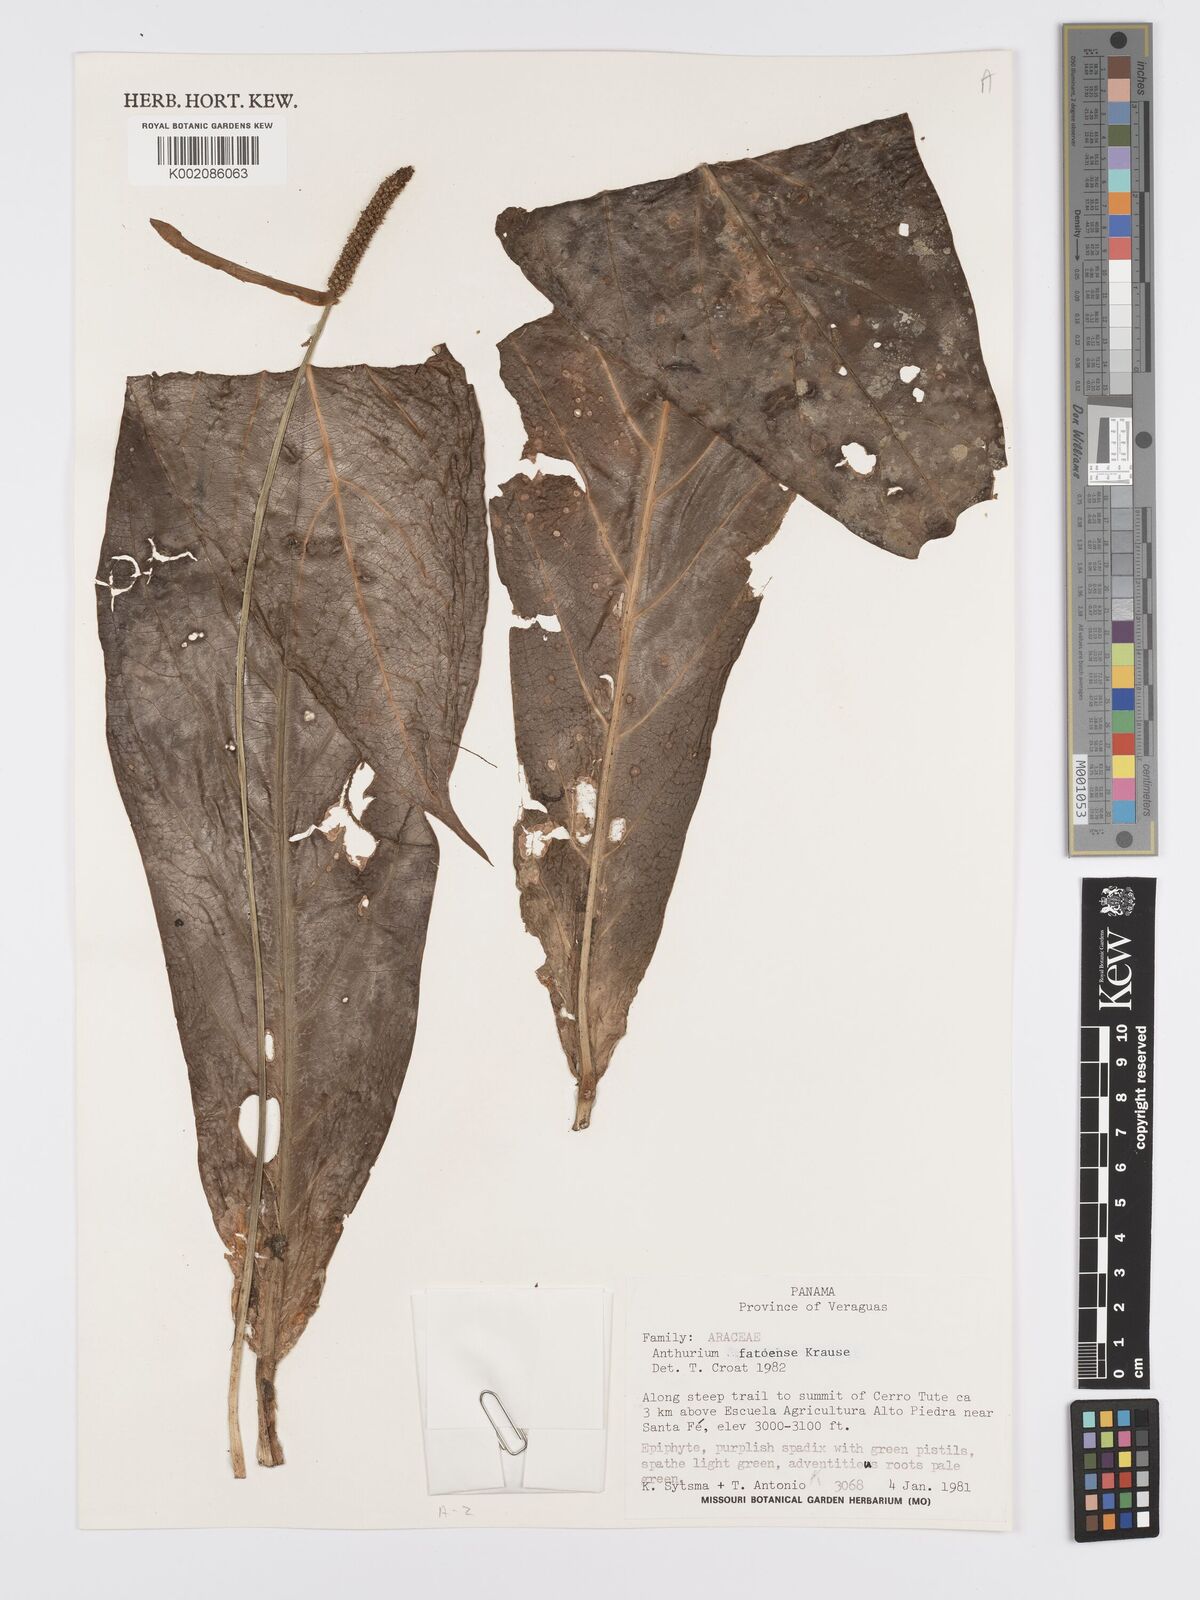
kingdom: Plantae
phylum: Tracheophyta
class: Liliopsida
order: Alismatales
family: Araceae
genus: Anthurium
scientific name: Anthurium fatoense
